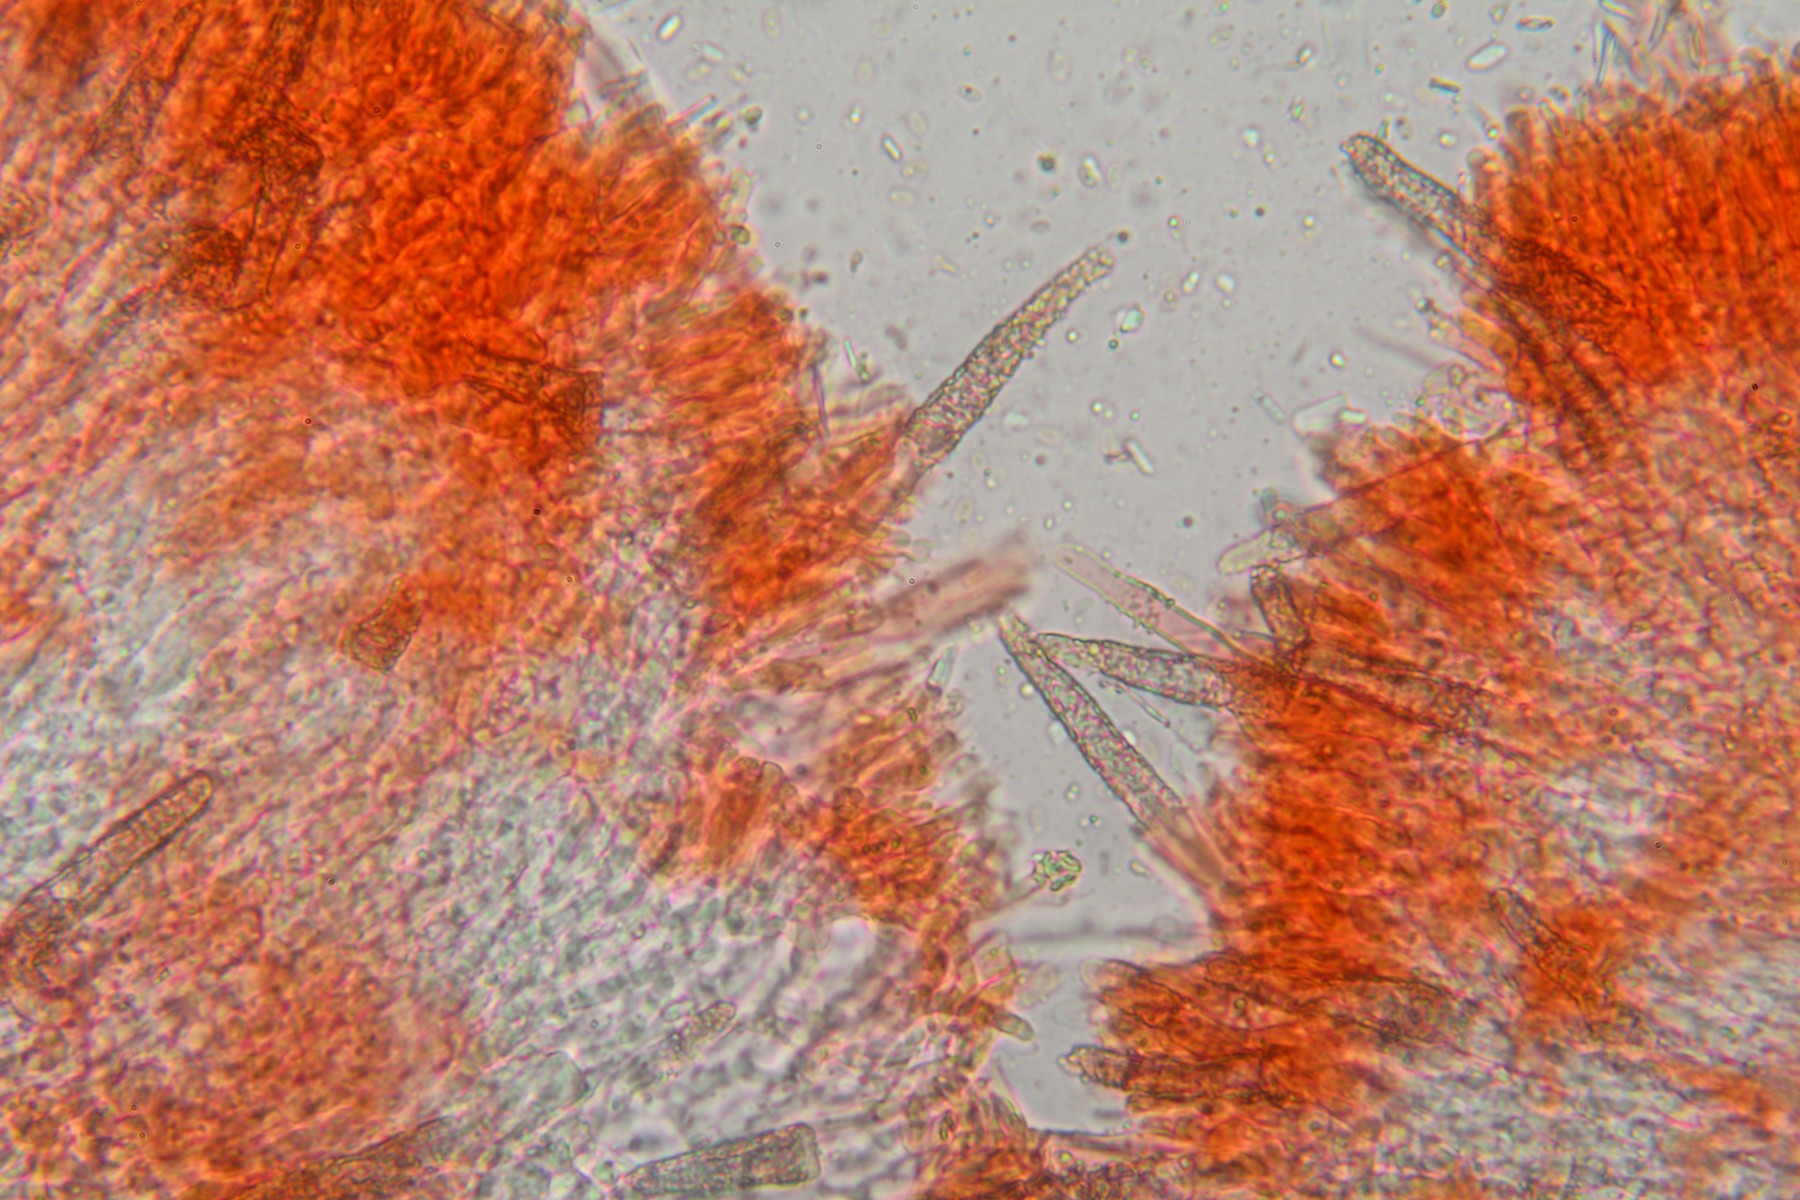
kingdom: Fungi
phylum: Basidiomycota
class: Agaricomycetes
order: Polyporales
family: Phanerochaetaceae
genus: Phanerochaete
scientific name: Phanerochaete velutina
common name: dunet randtråd
